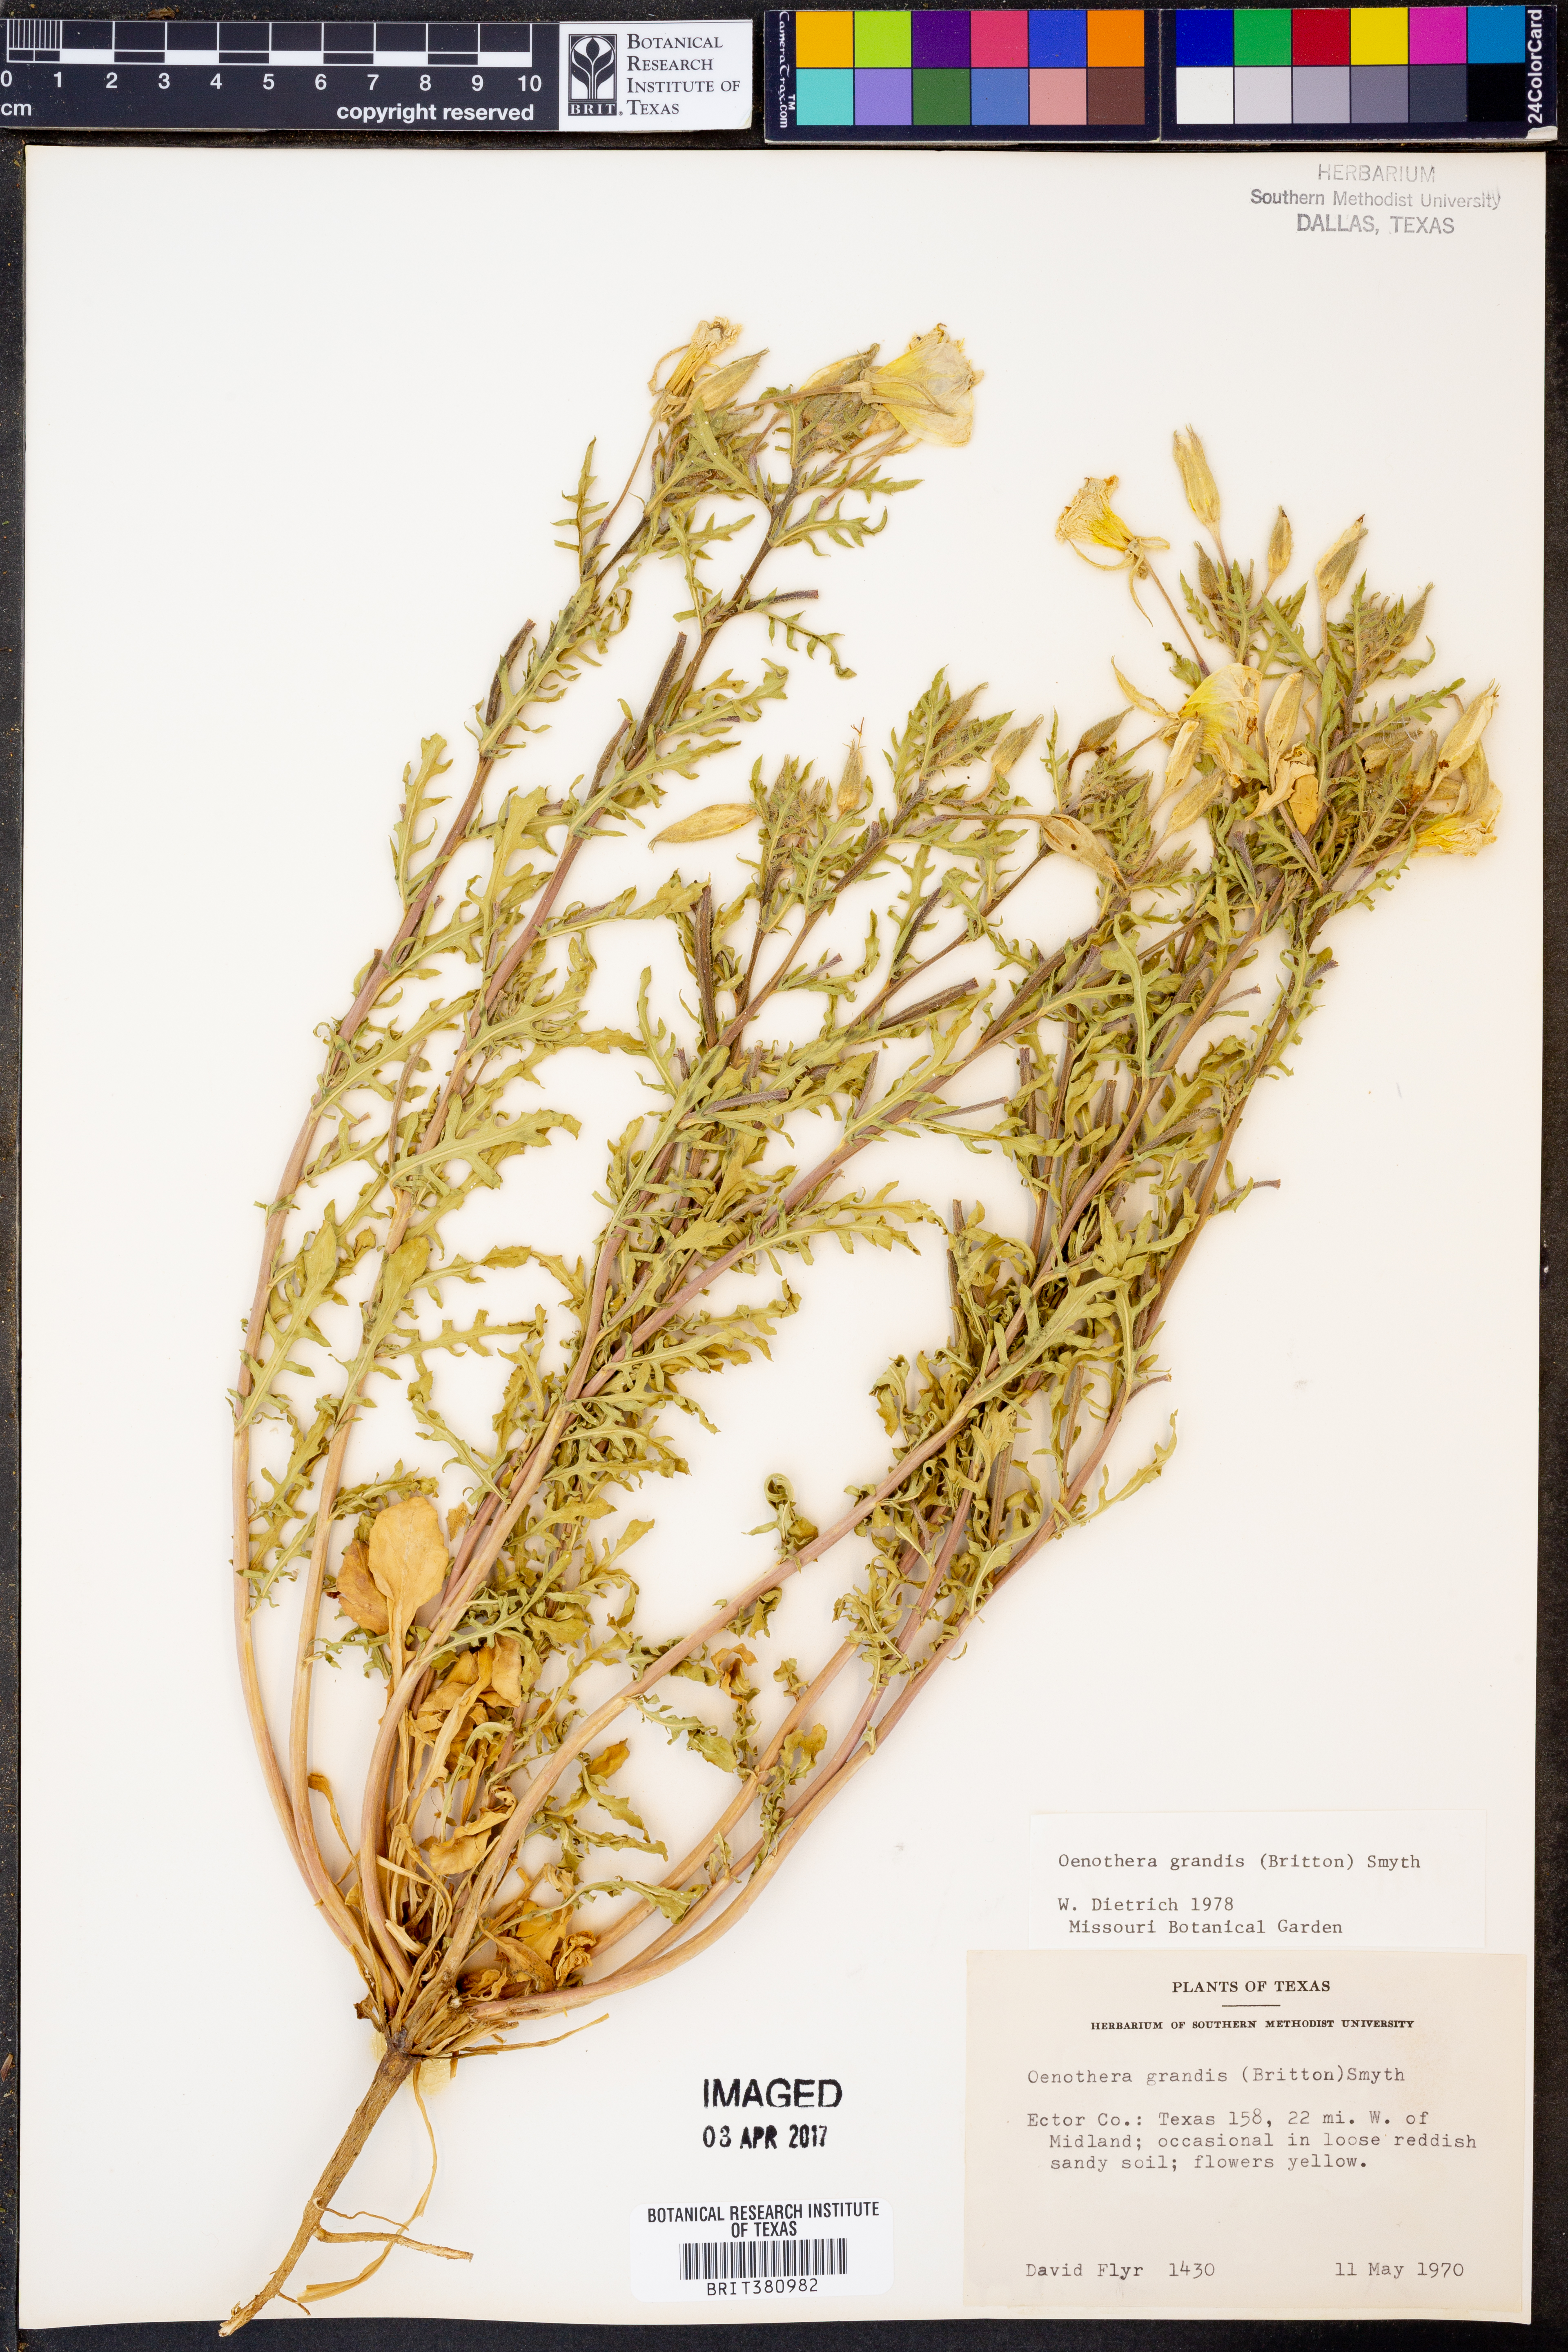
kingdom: Plantae
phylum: Tracheophyta
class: Magnoliopsida
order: Myrtales
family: Onagraceae
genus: Oenothera
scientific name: Oenothera grandis
